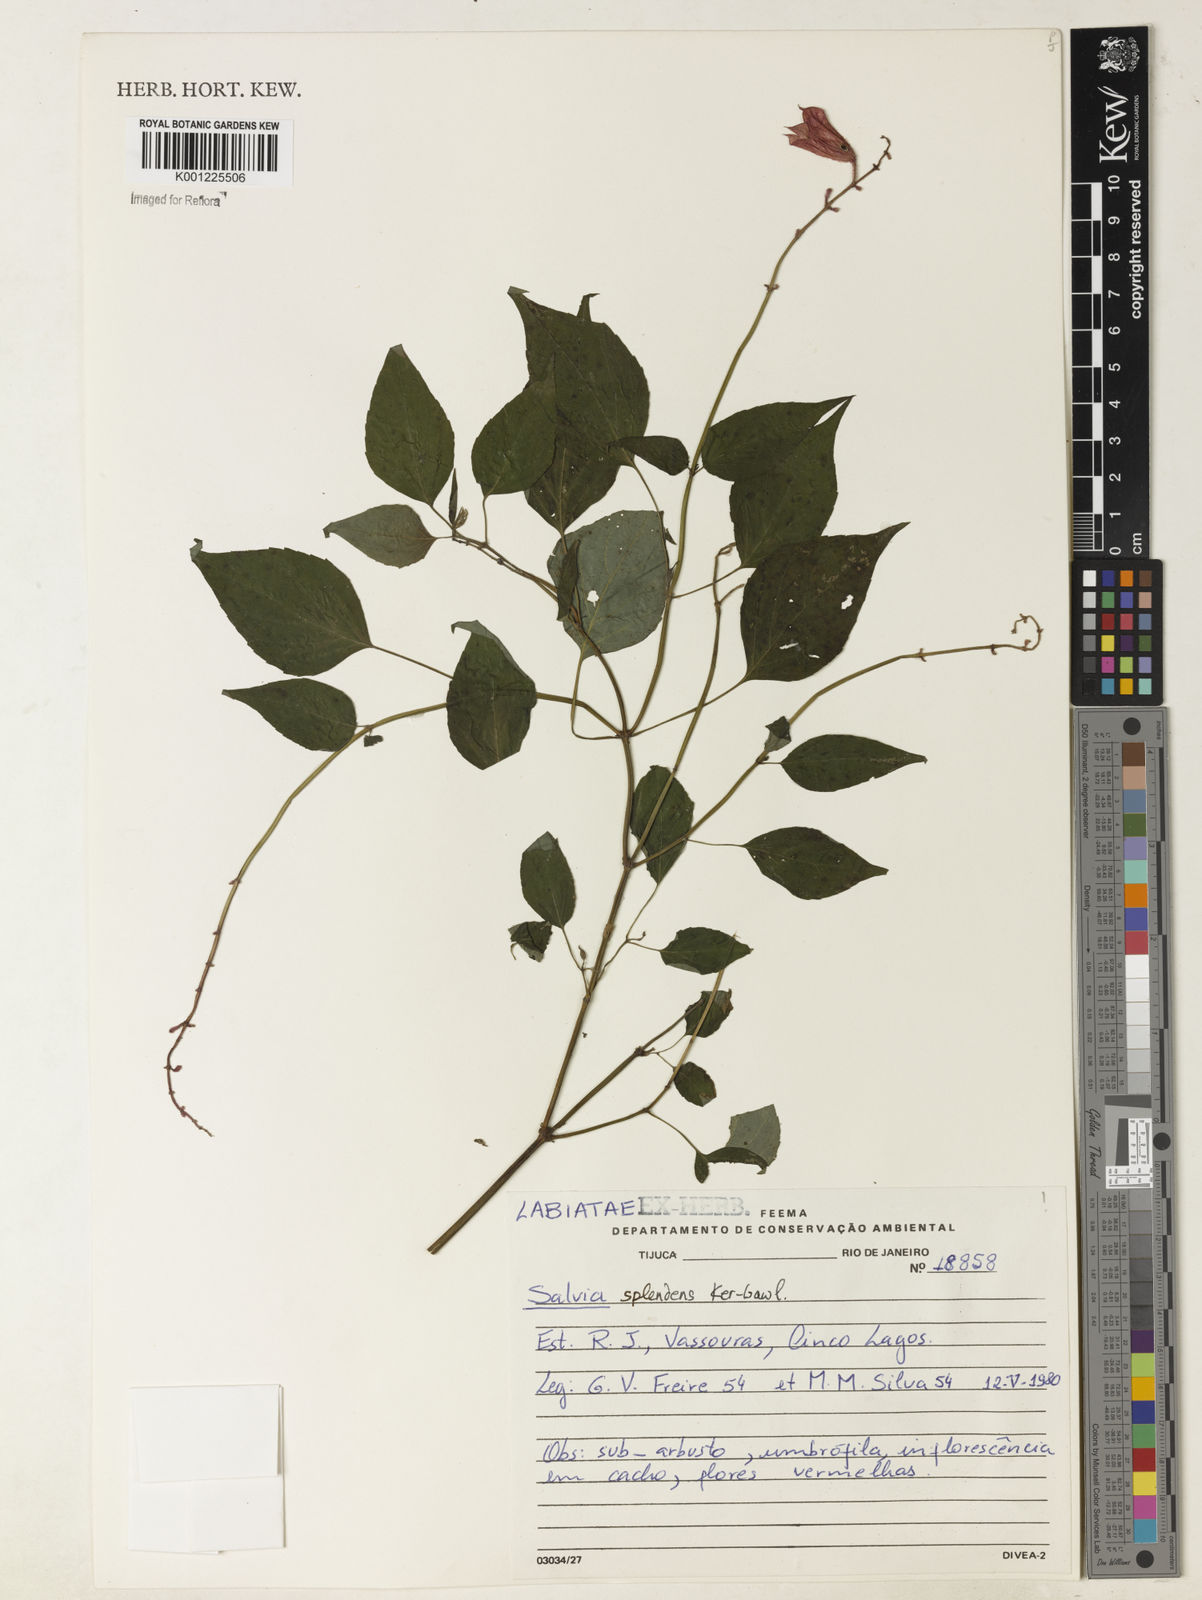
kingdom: Plantae
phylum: Tracheophyta
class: Magnoliopsida
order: Lamiales
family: Lamiaceae
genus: Salvia
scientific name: Salvia
